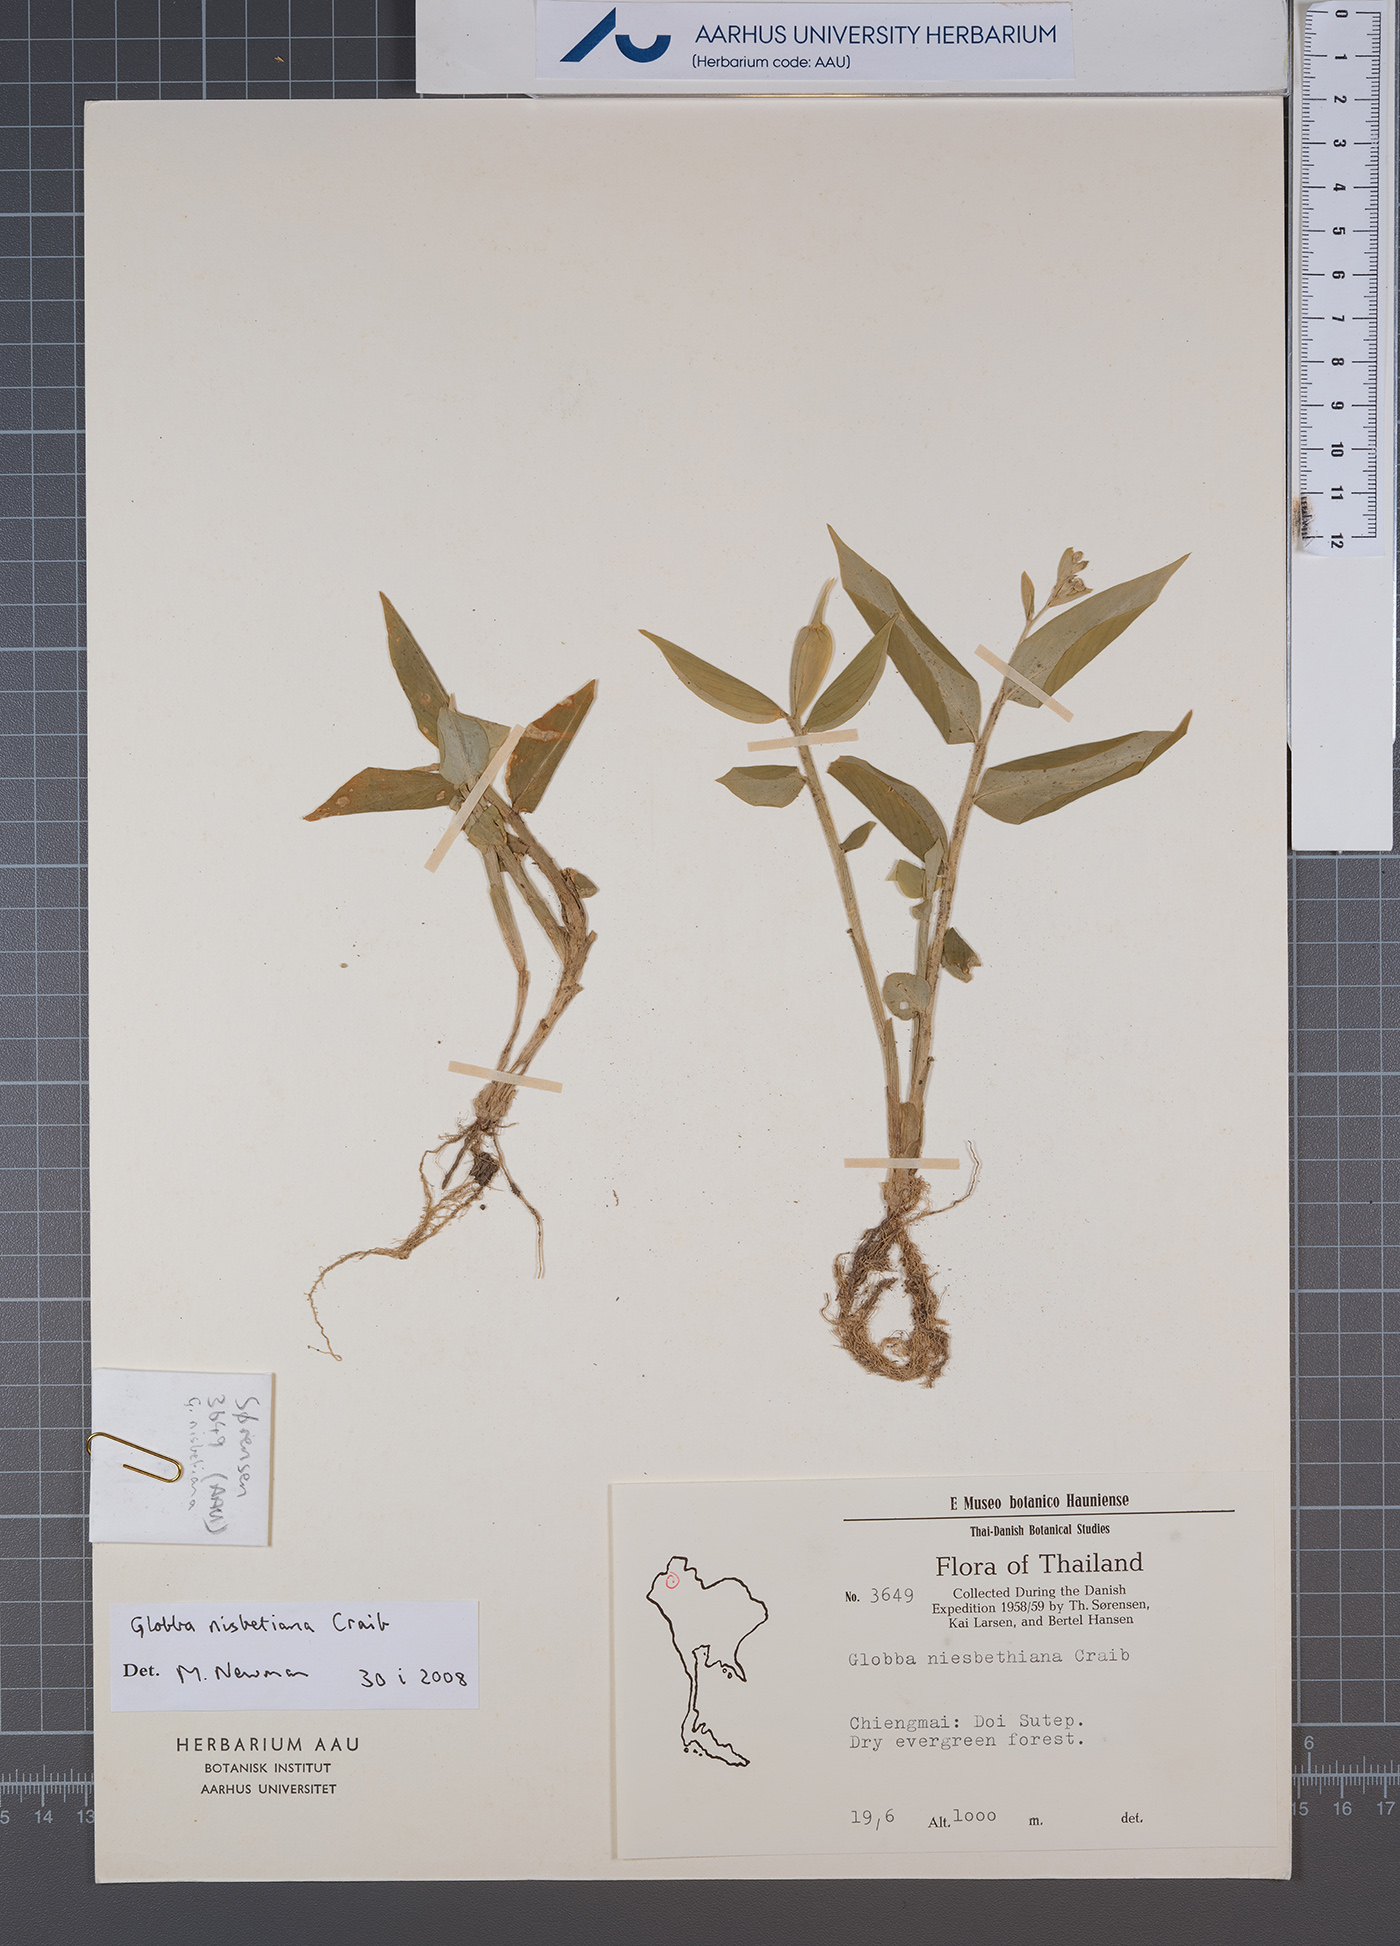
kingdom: Plantae
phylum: Tracheophyta
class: Liliopsida
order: Zingiberales
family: Zingiberaceae
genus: Globba
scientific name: Globba nisbetiana
